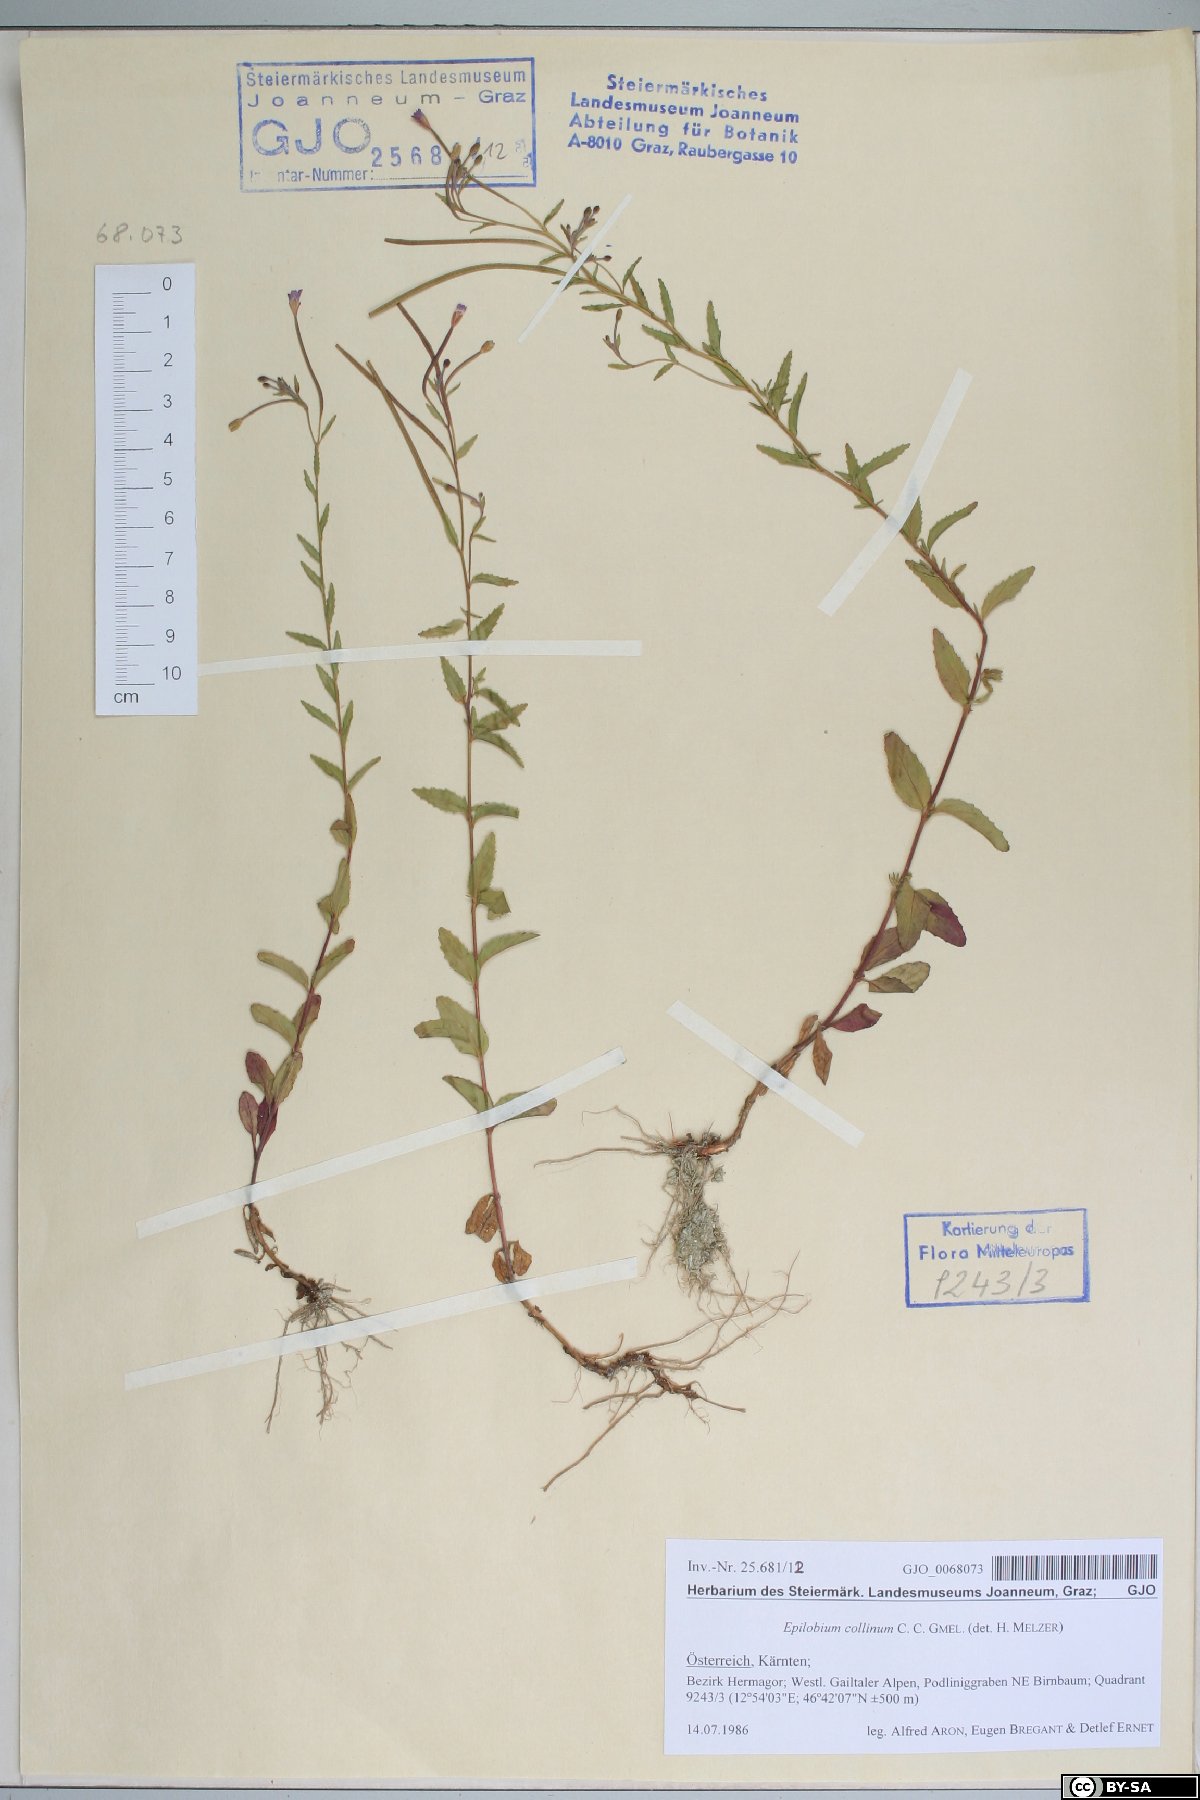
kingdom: Plantae
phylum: Tracheophyta
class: Magnoliopsida
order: Myrtales
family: Onagraceae
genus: Epilobium
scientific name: Epilobium collinum
